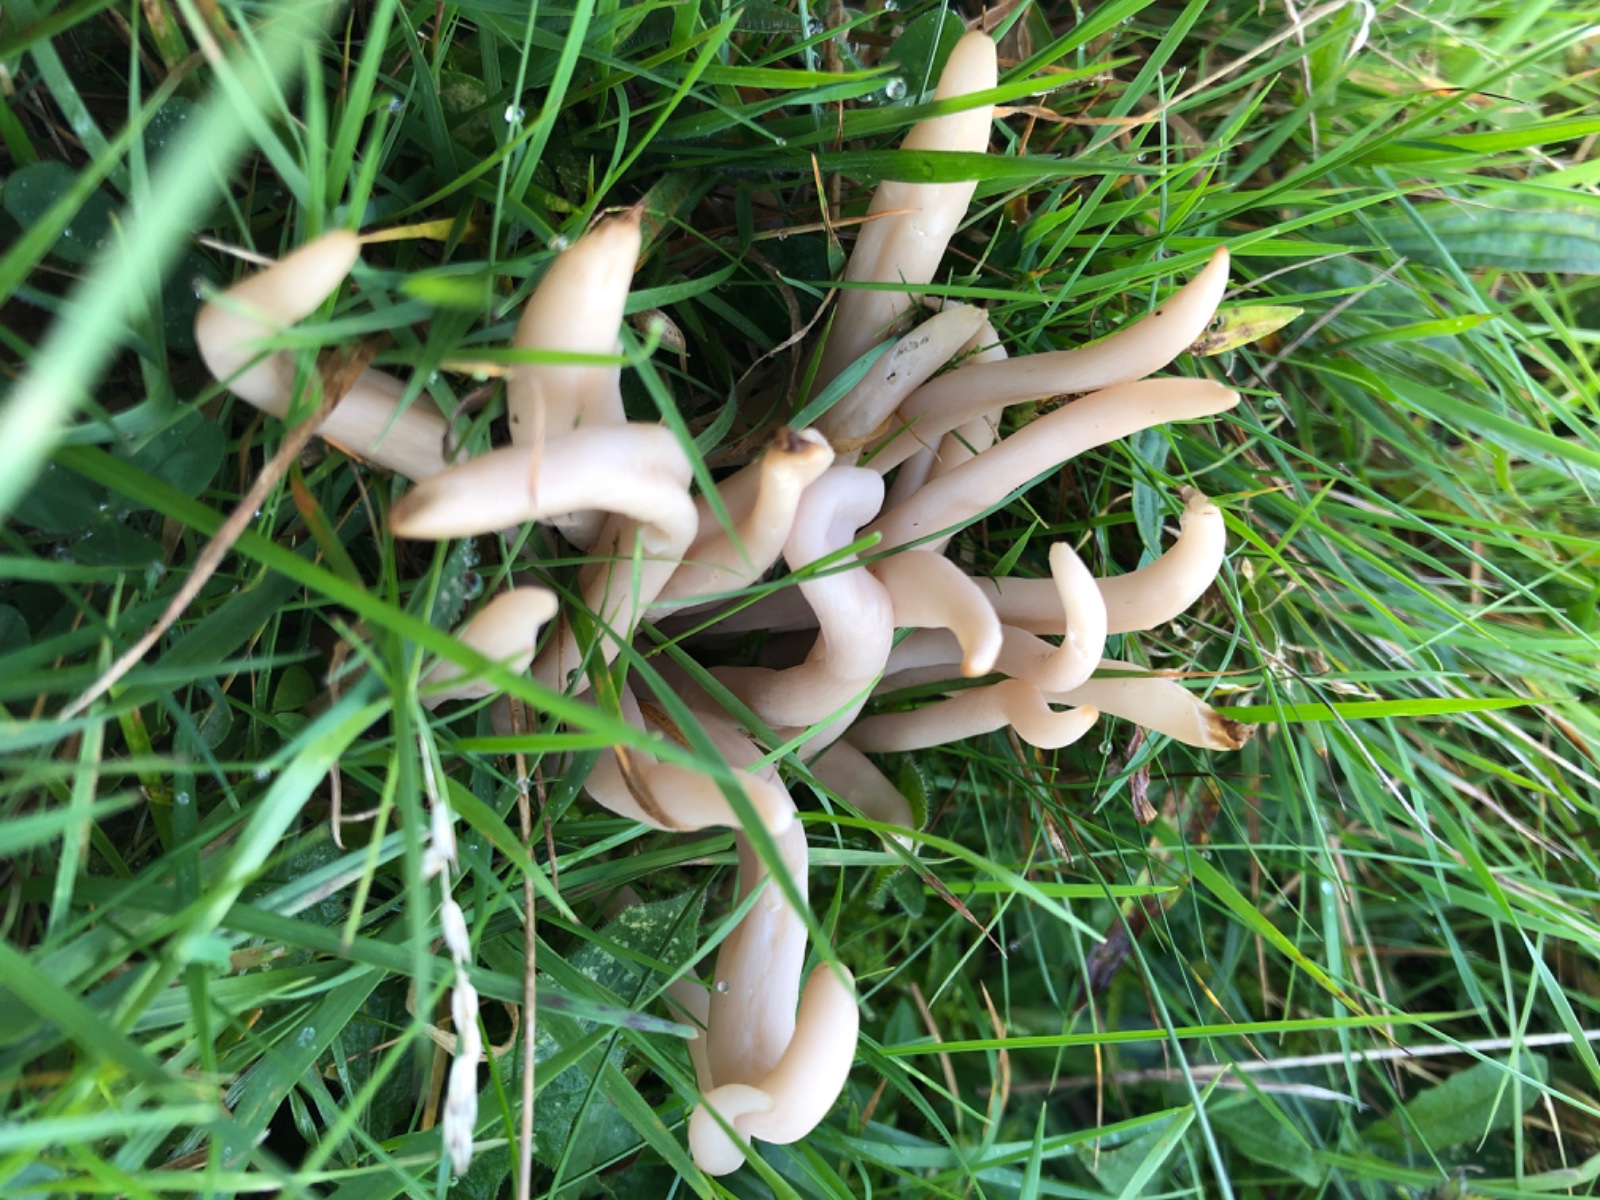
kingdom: Fungi
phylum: Basidiomycota
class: Agaricomycetes
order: Agaricales
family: Clavariaceae
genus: Clavaria
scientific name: Clavaria fumosa
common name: røggrå køllesvamp
